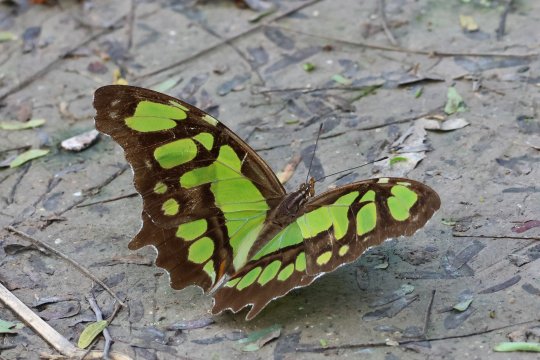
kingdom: Animalia
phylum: Arthropoda
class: Insecta
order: Lepidoptera
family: Nymphalidae
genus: Siproeta
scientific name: Siproeta stelenes
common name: Malachite
